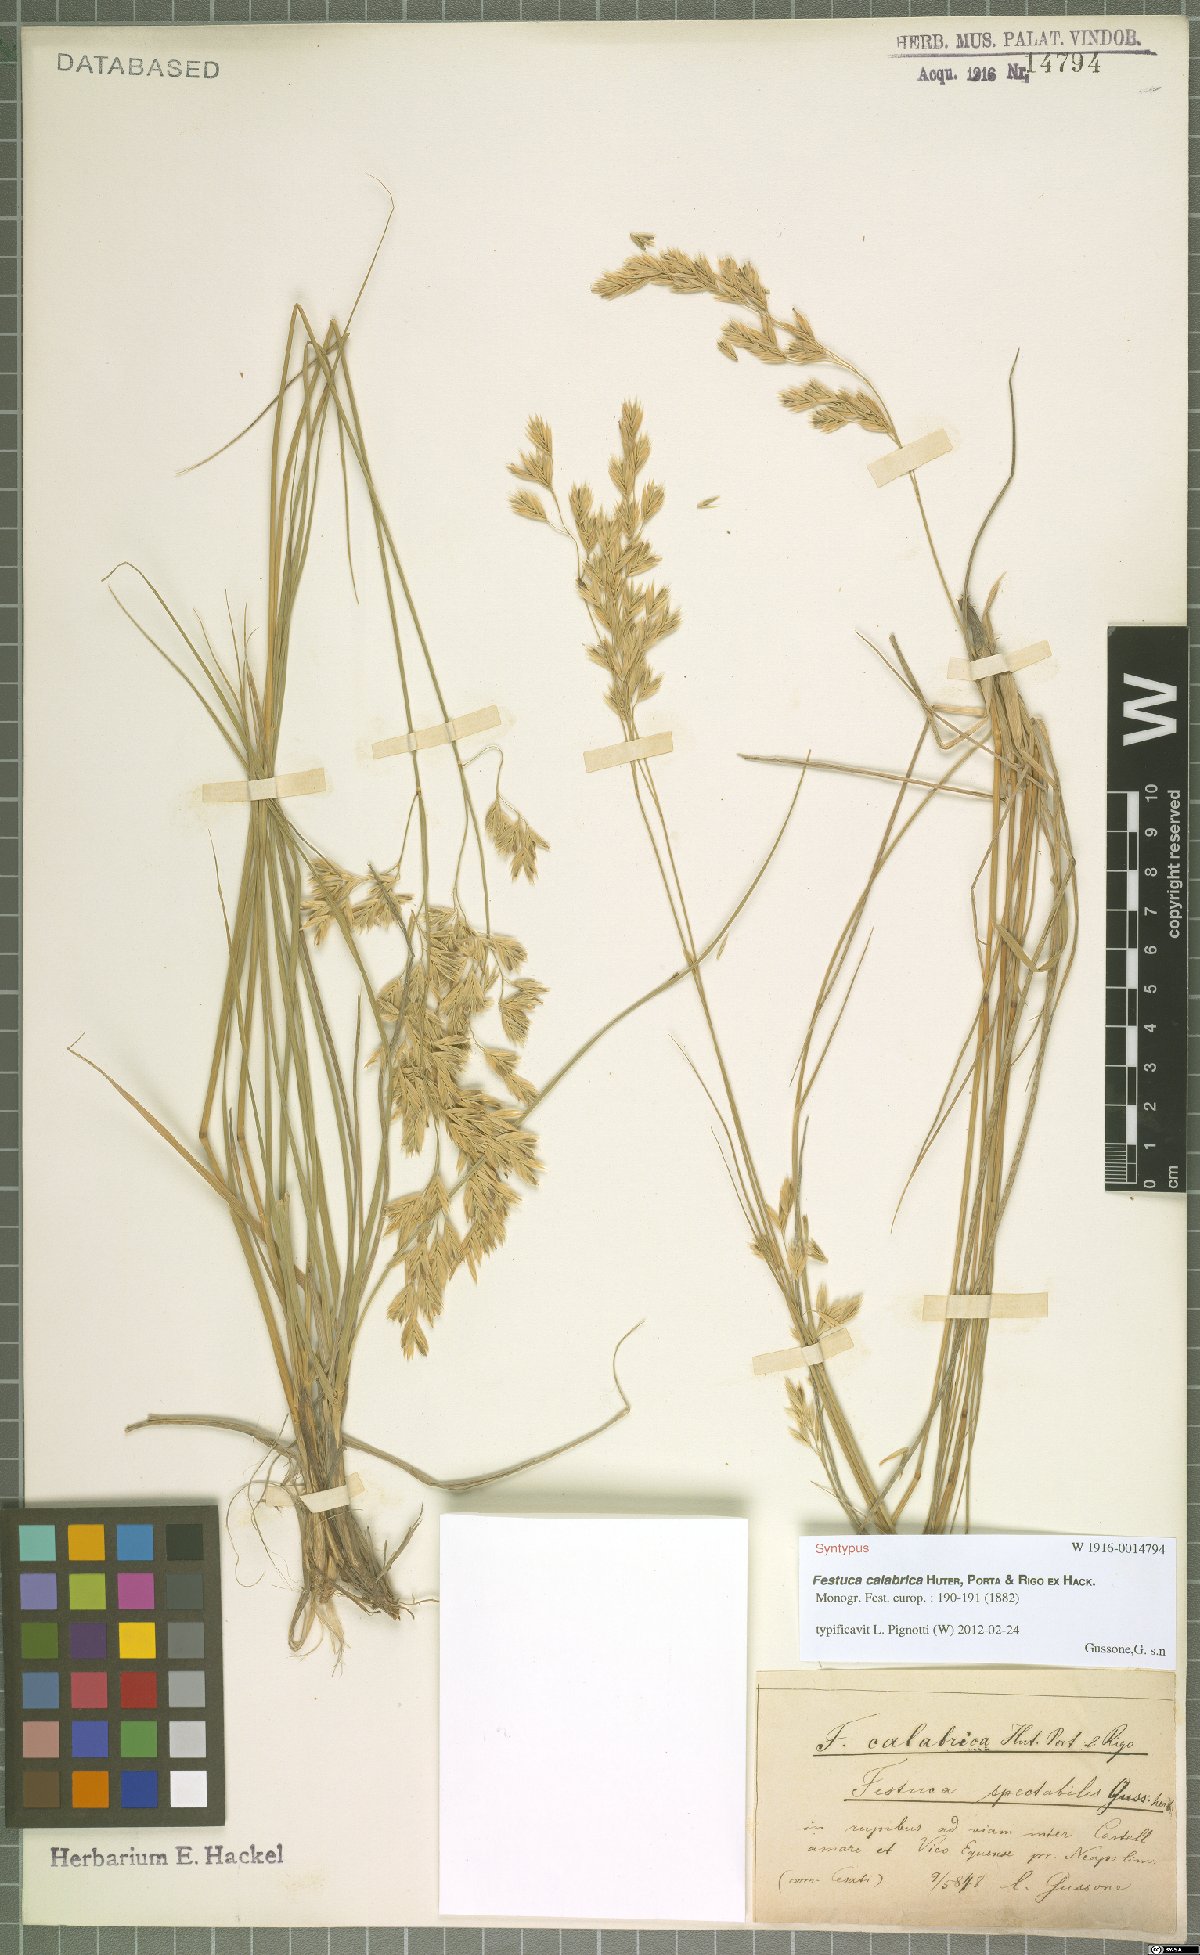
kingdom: Plantae
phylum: Tracheophyta
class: Liliopsida
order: Poales
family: Poaceae
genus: Festuca
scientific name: Festuca calabrica
